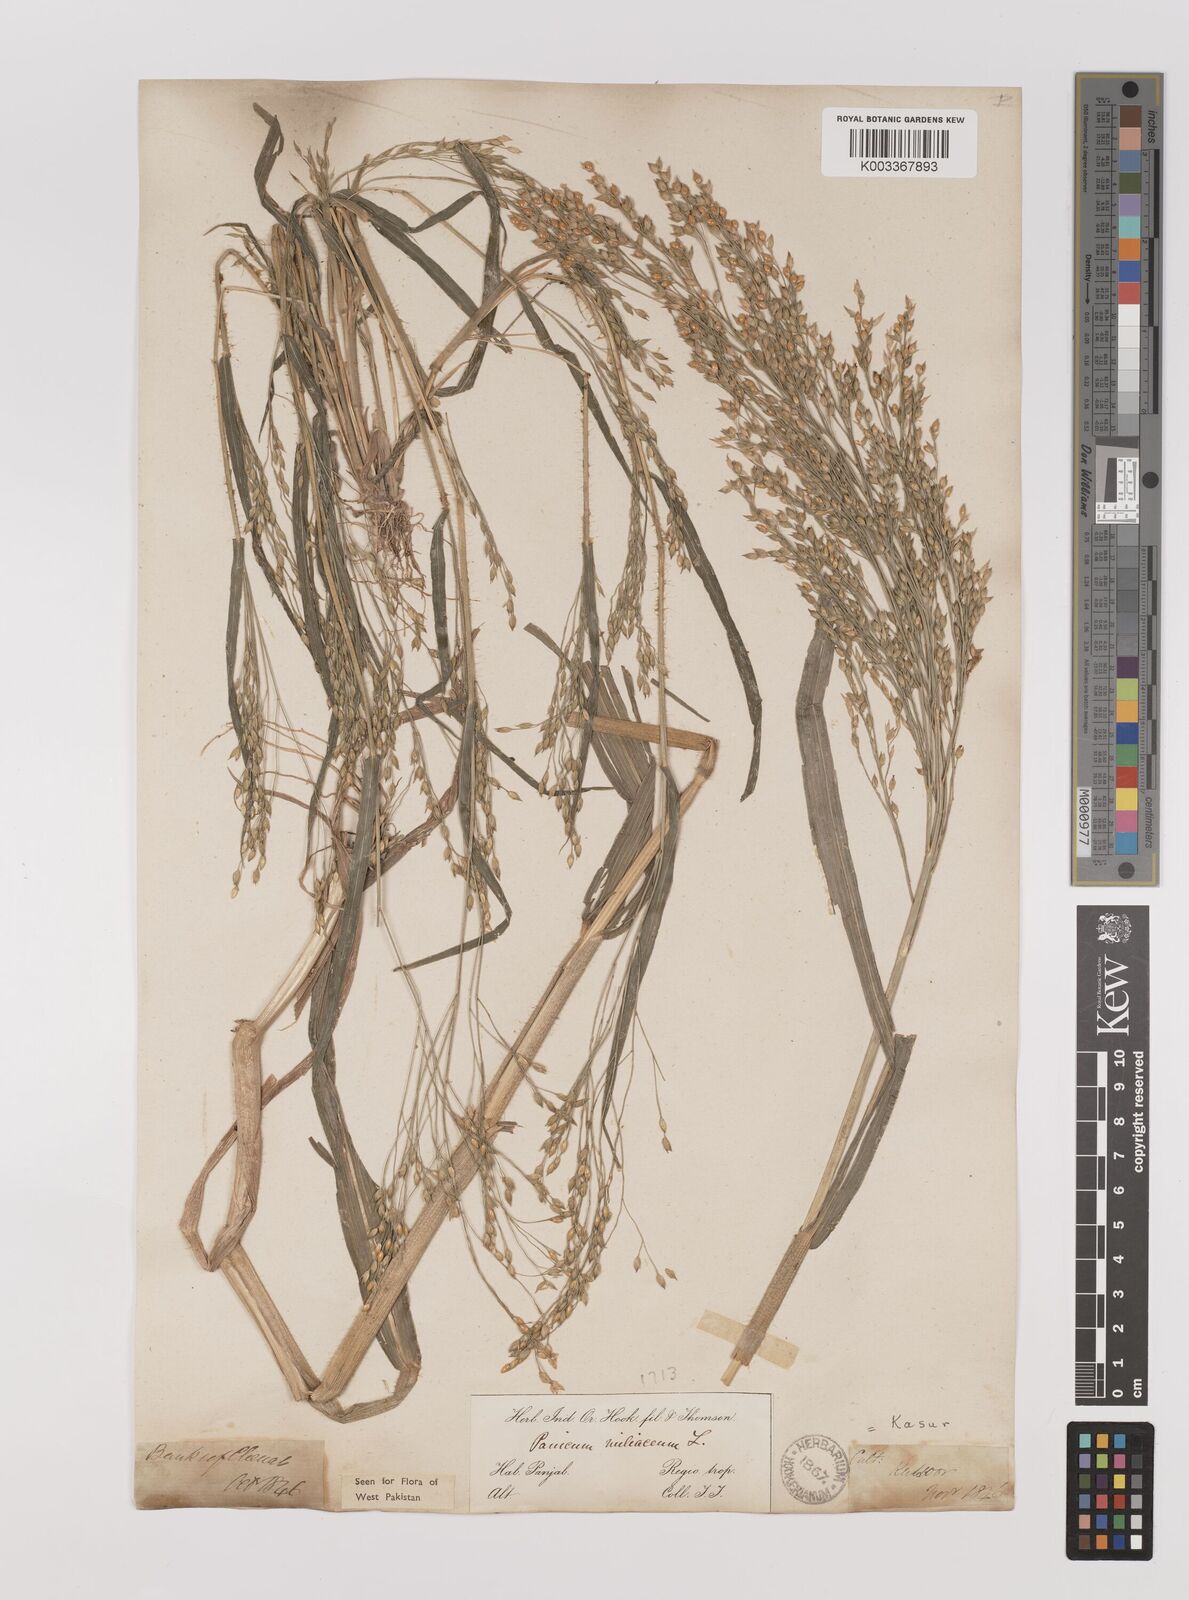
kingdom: Plantae
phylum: Tracheophyta
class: Liliopsida
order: Poales
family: Poaceae
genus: Panicum
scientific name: Panicum miliaceum
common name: Common millet
